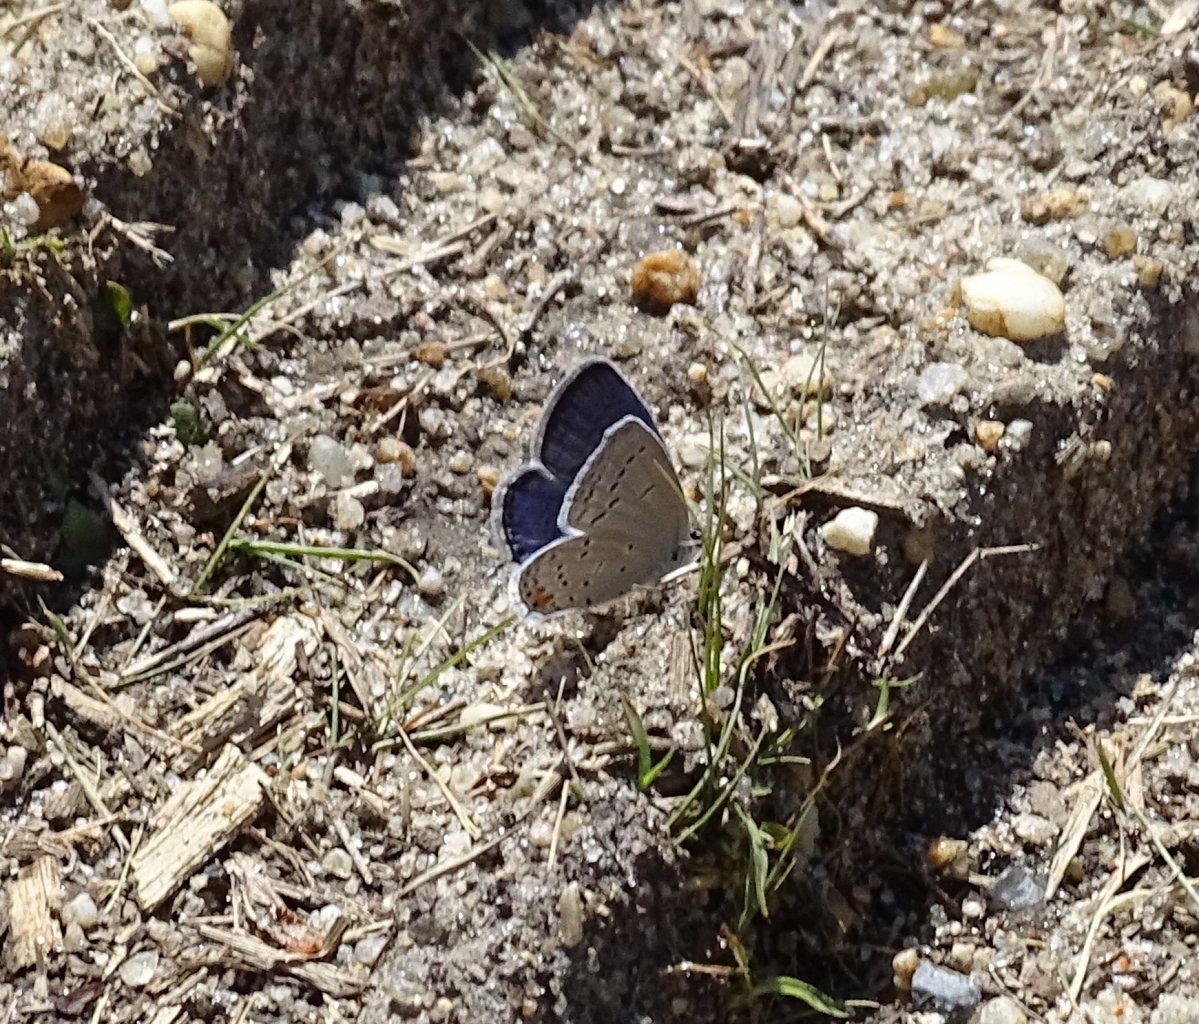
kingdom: Animalia
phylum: Arthropoda
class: Insecta
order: Lepidoptera
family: Lycaenidae
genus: Elkalyce
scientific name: Elkalyce comyntas
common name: Eastern Tailed-Blue
